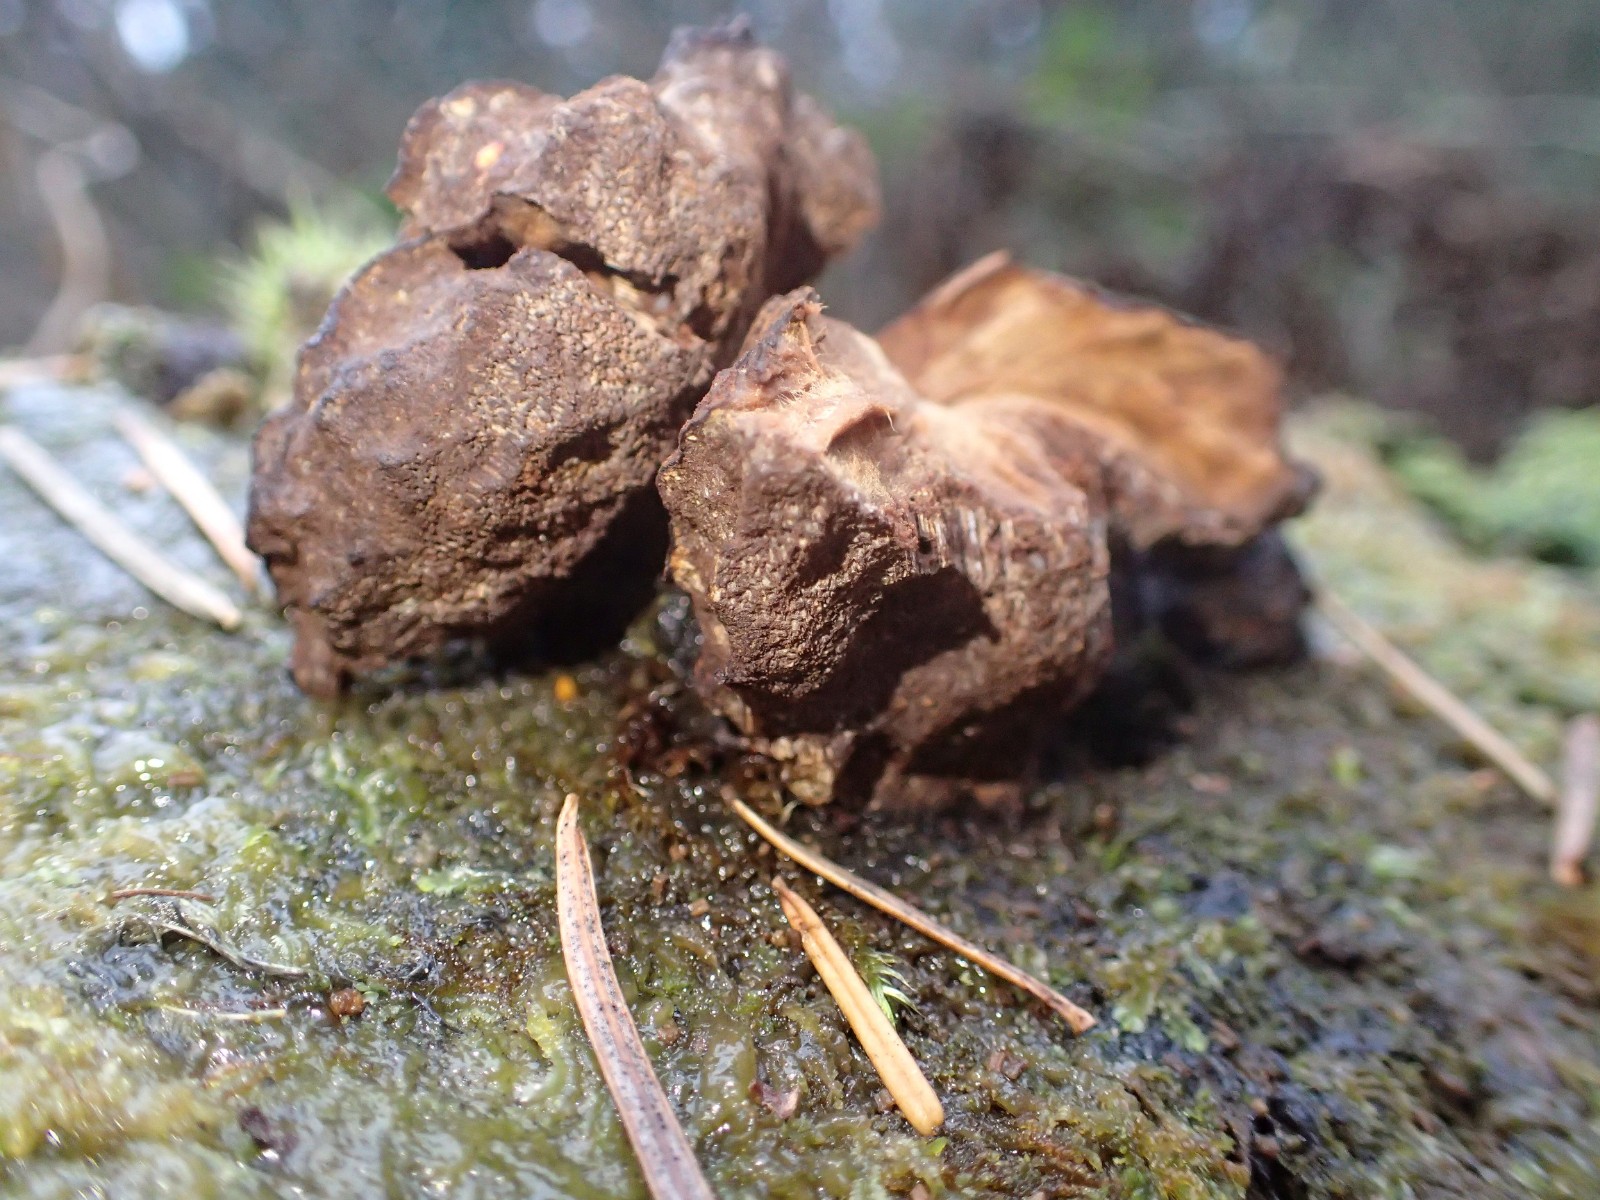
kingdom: Fungi
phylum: Basidiomycota
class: Agaricomycetes
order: Gloeophyllales
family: Gloeophyllaceae
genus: Gloeophyllum
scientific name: Gloeophyllum odoratum
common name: duftende korkhat
